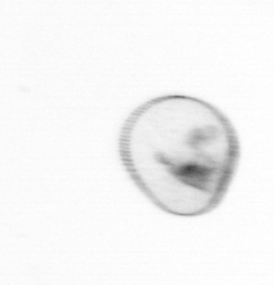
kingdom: Chromista
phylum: Myzozoa
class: Dinophyceae
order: Noctilucales
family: Noctilucaceae
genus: Noctiluca
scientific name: Noctiluca scintillans
